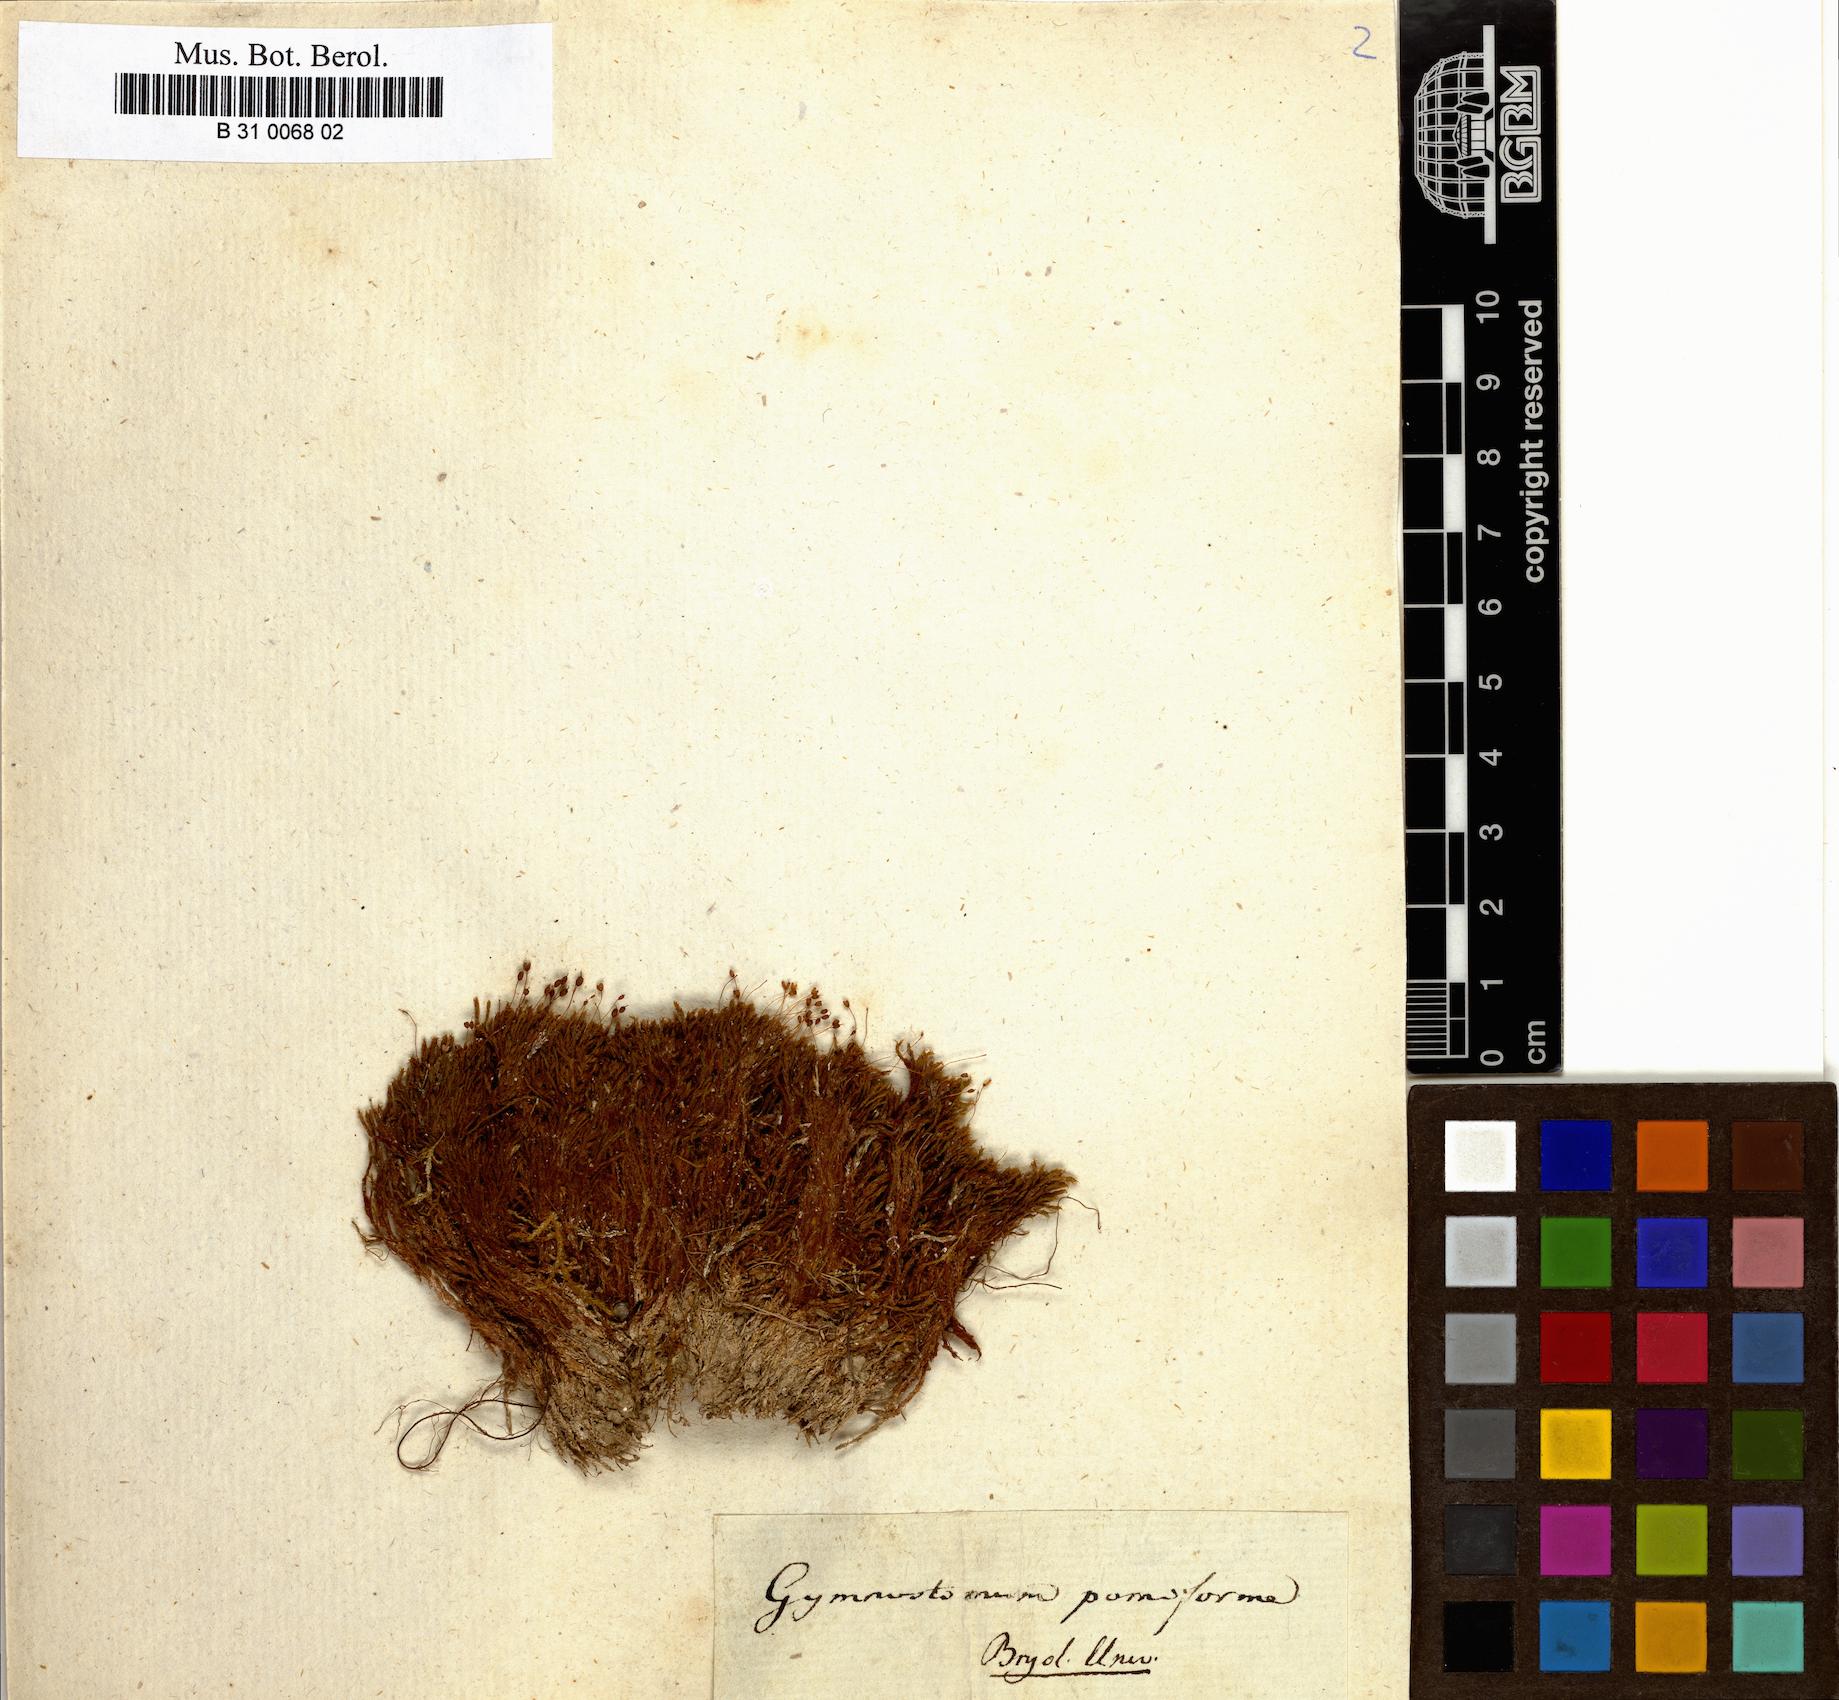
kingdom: Plantae
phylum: Bryophyta
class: Bryopsida
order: Pottiales
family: Pottiaceae
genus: Hymenostylium
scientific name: Hymenostylium recurvirostrum
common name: Hook-beak tufa-moss
